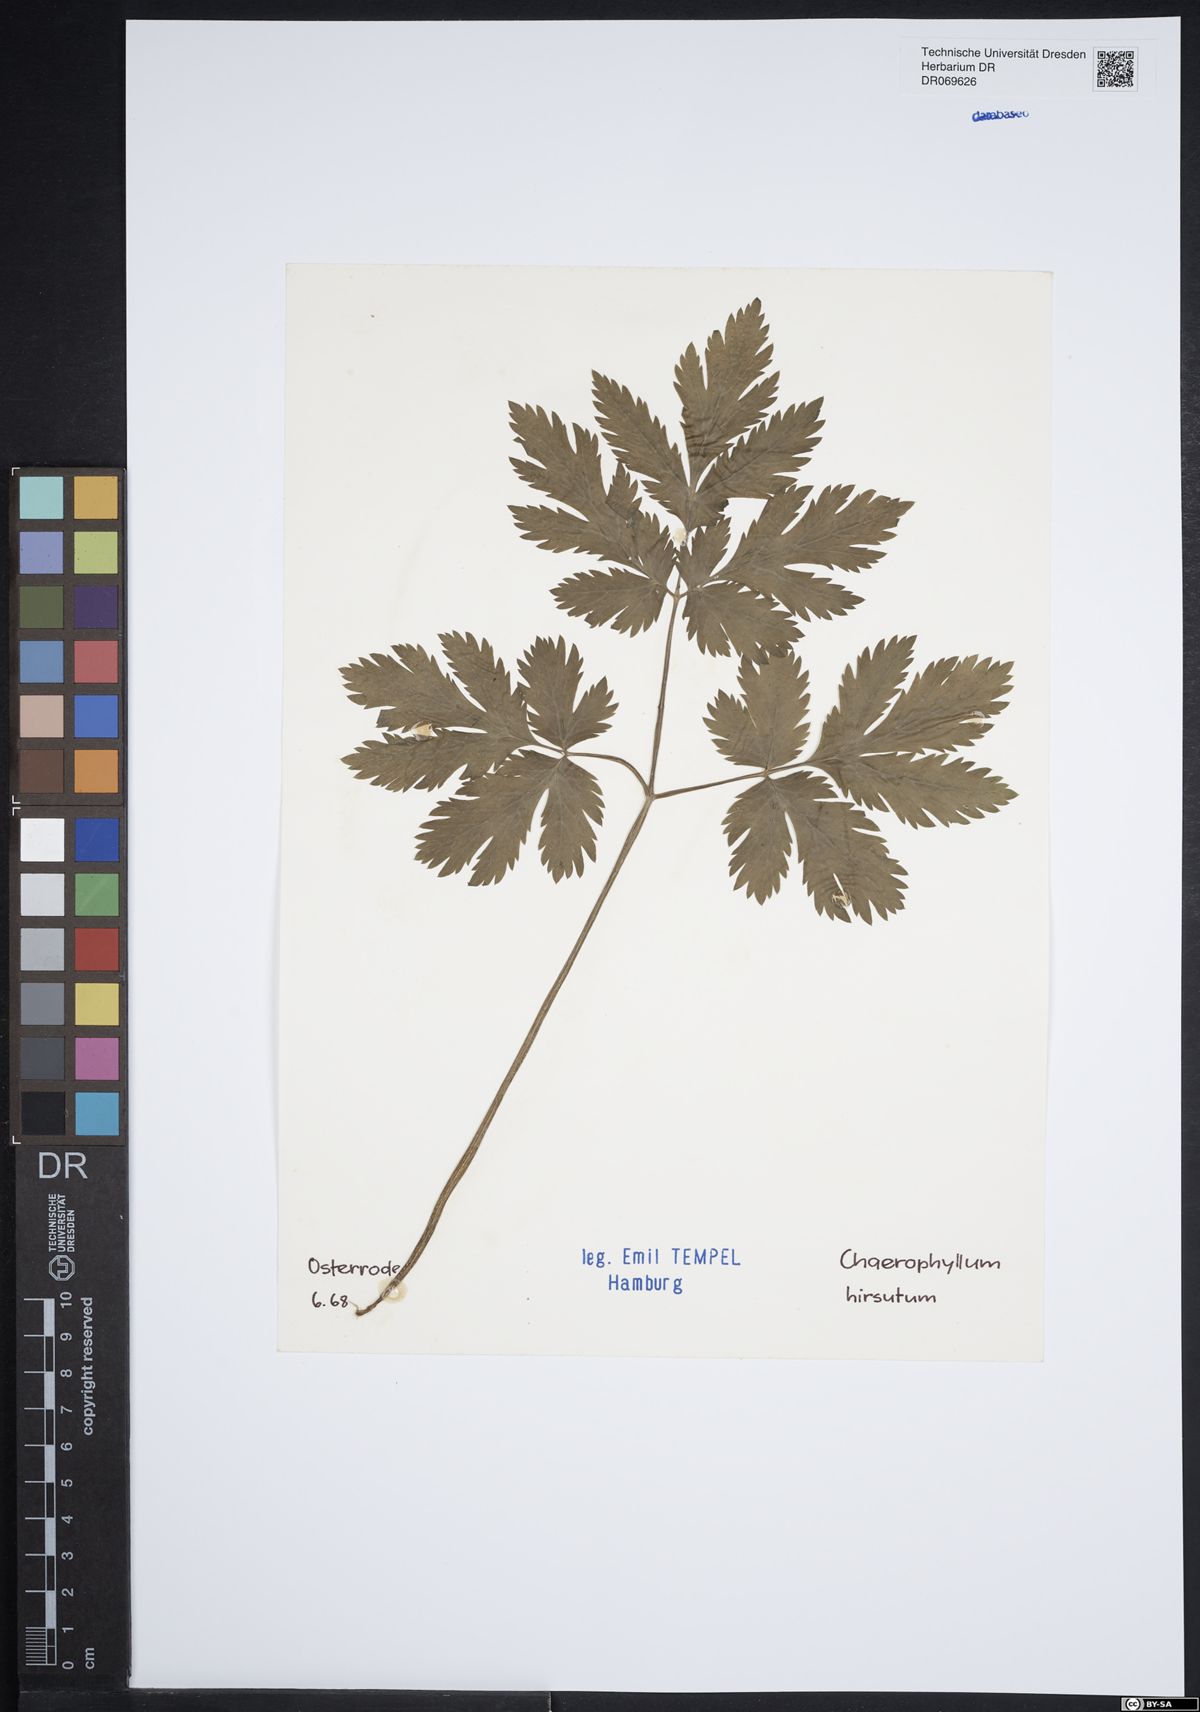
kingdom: Plantae
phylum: Tracheophyta
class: Magnoliopsida
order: Apiales
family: Apiaceae
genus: Chaerophyllum
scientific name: Chaerophyllum hirsutum
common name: Hairy chervil
